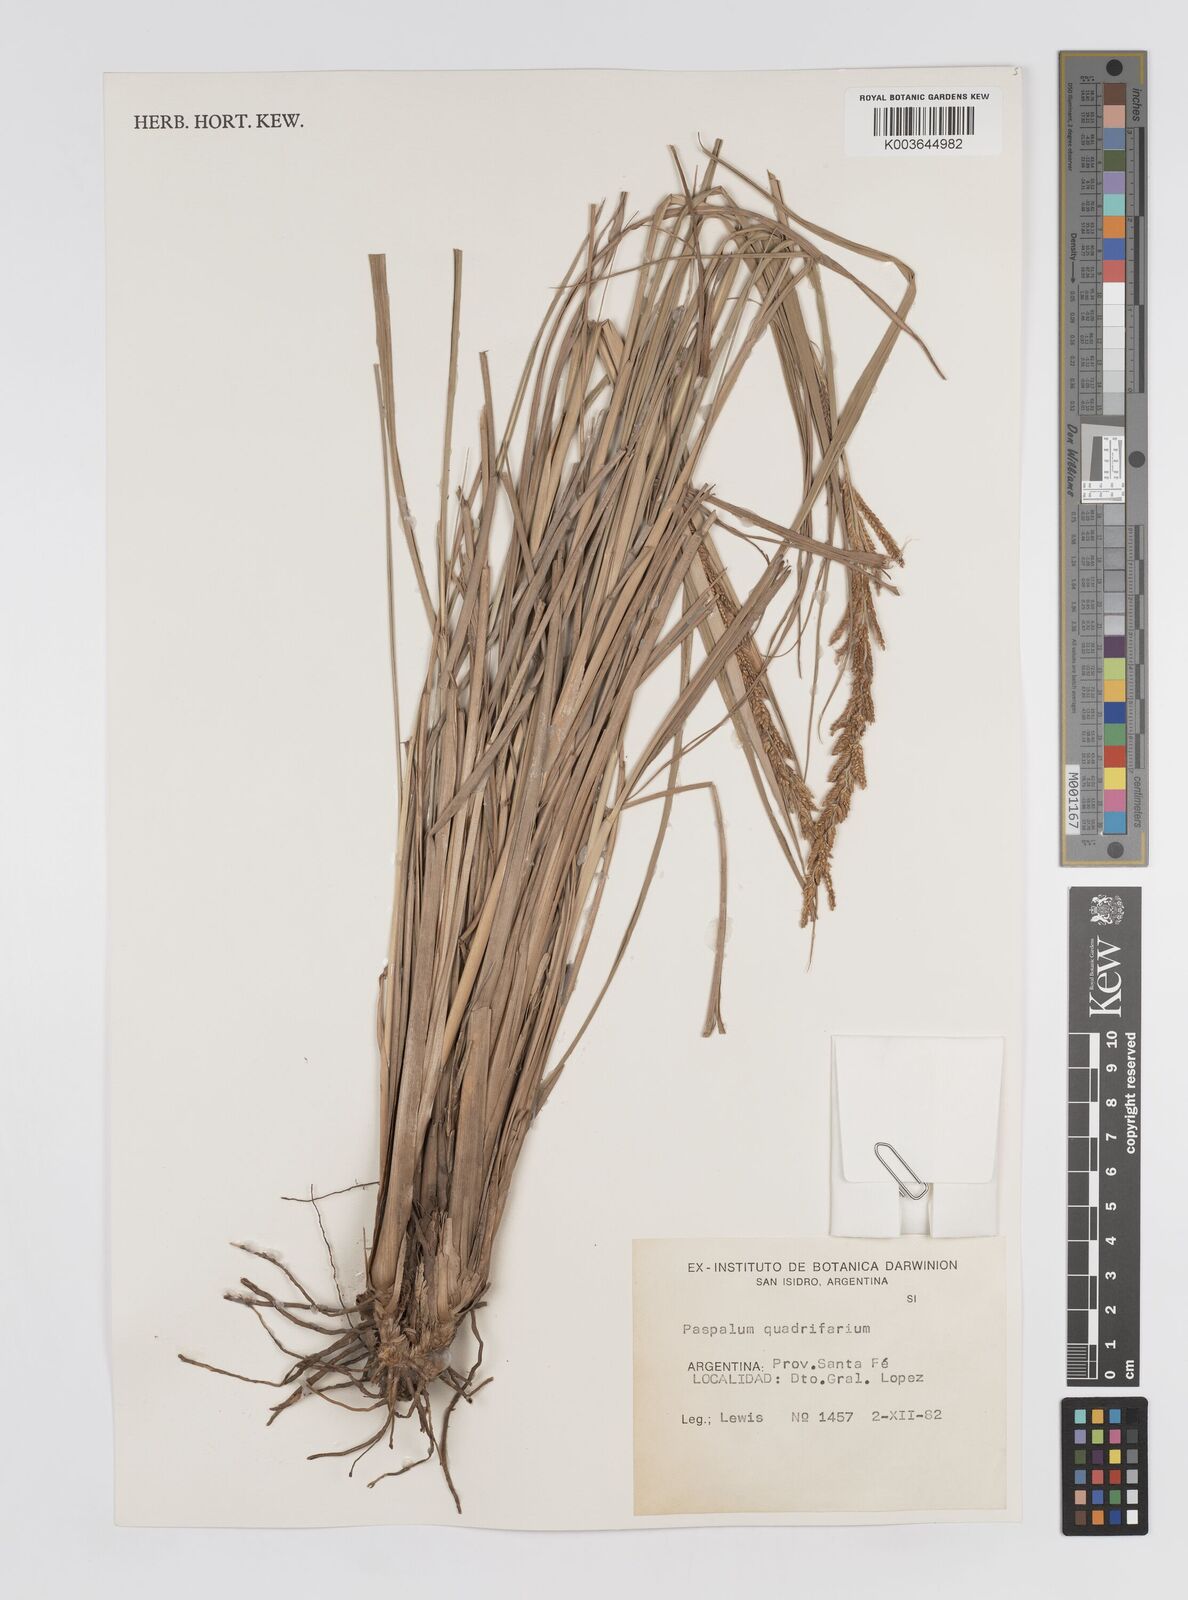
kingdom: Plantae
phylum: Tracheophyta
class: Liliopsida
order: Poales
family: Poaceae
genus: Paspalum
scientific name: Paspalum quadrifarium
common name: Tussock paspalum
